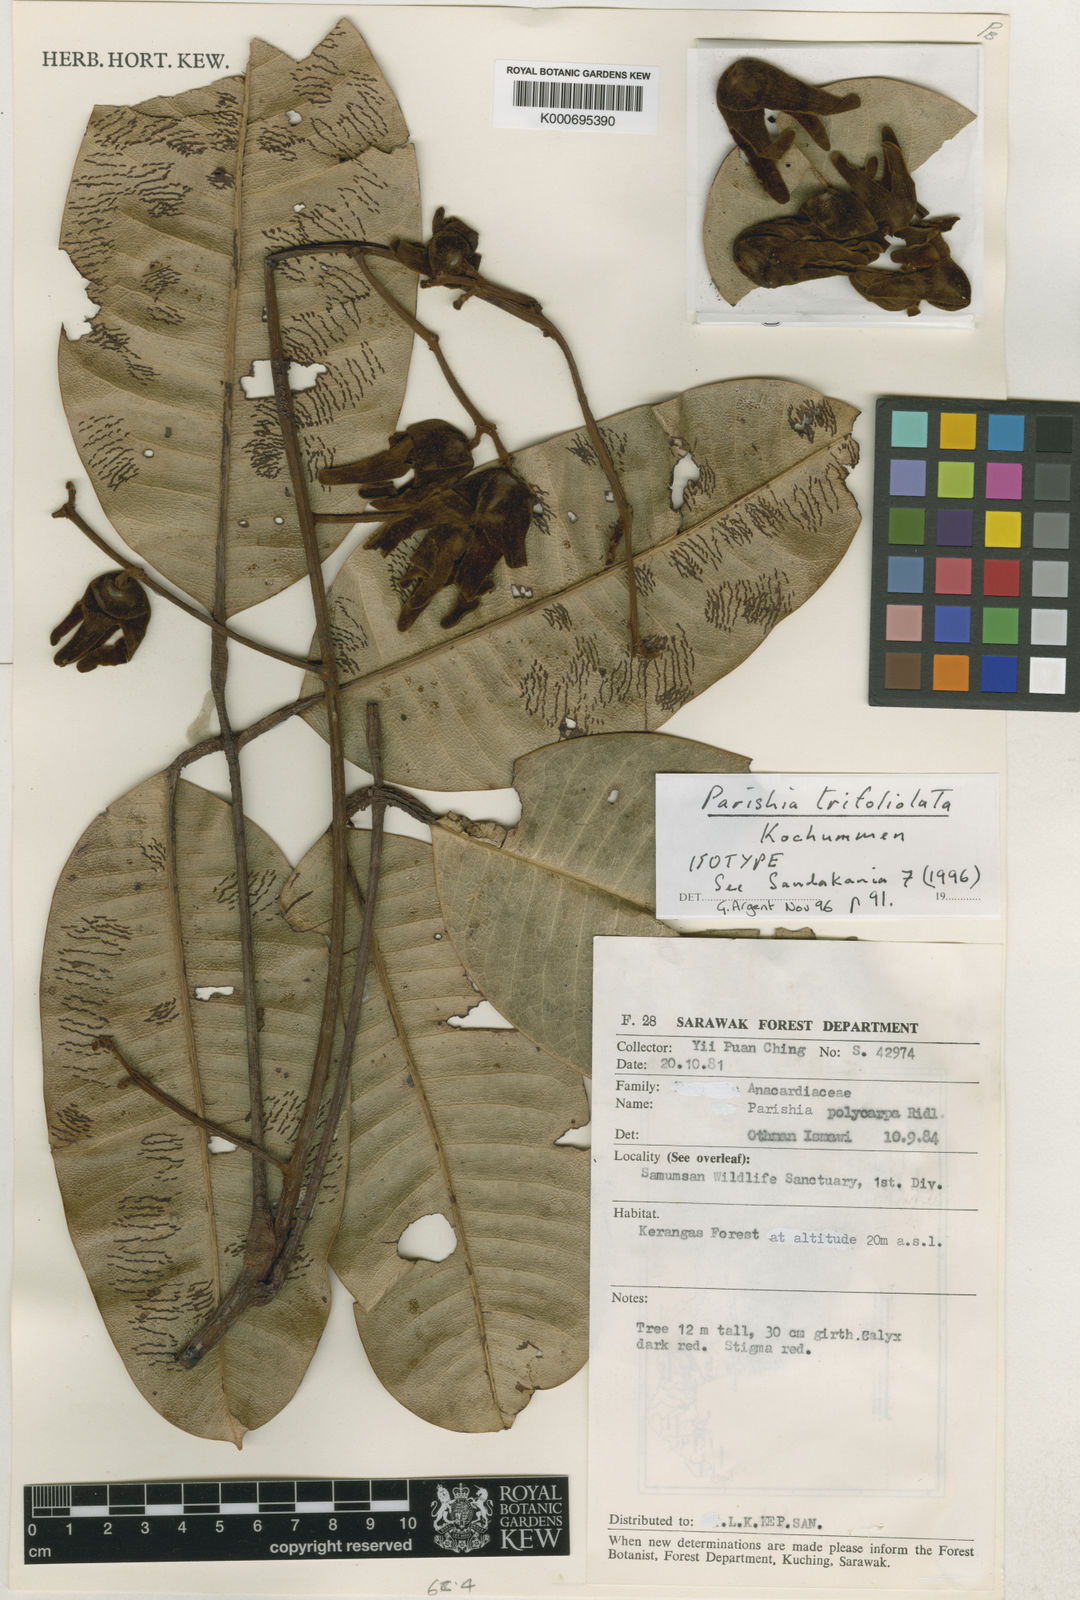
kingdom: Plantae
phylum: Tracheophyta
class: Magnoliopsida
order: Sapindales
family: Anacardiaceae
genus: Parishia
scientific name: Parishia trifoliolata
